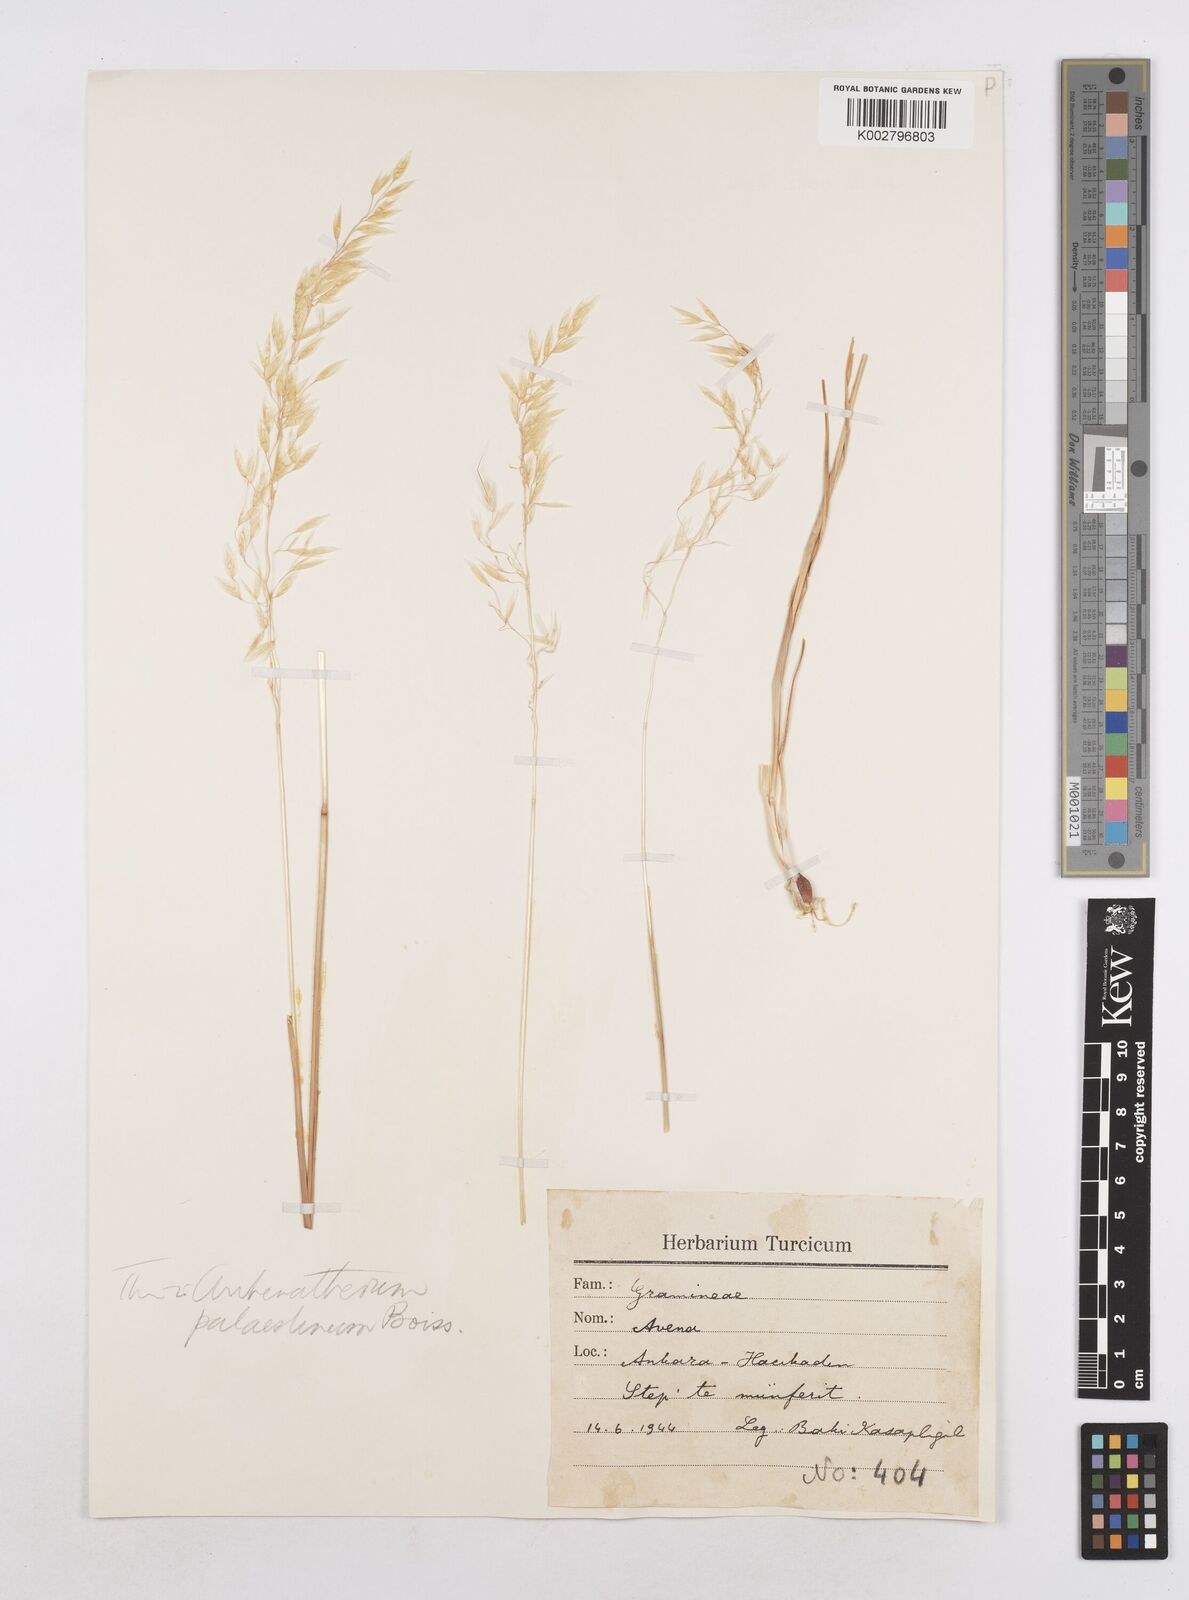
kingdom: Plantae
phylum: Tracheophyta
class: Liliopsida
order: Poales
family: Poaceae
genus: Arrhenatherum
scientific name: Arrhenatherum palaestinum
